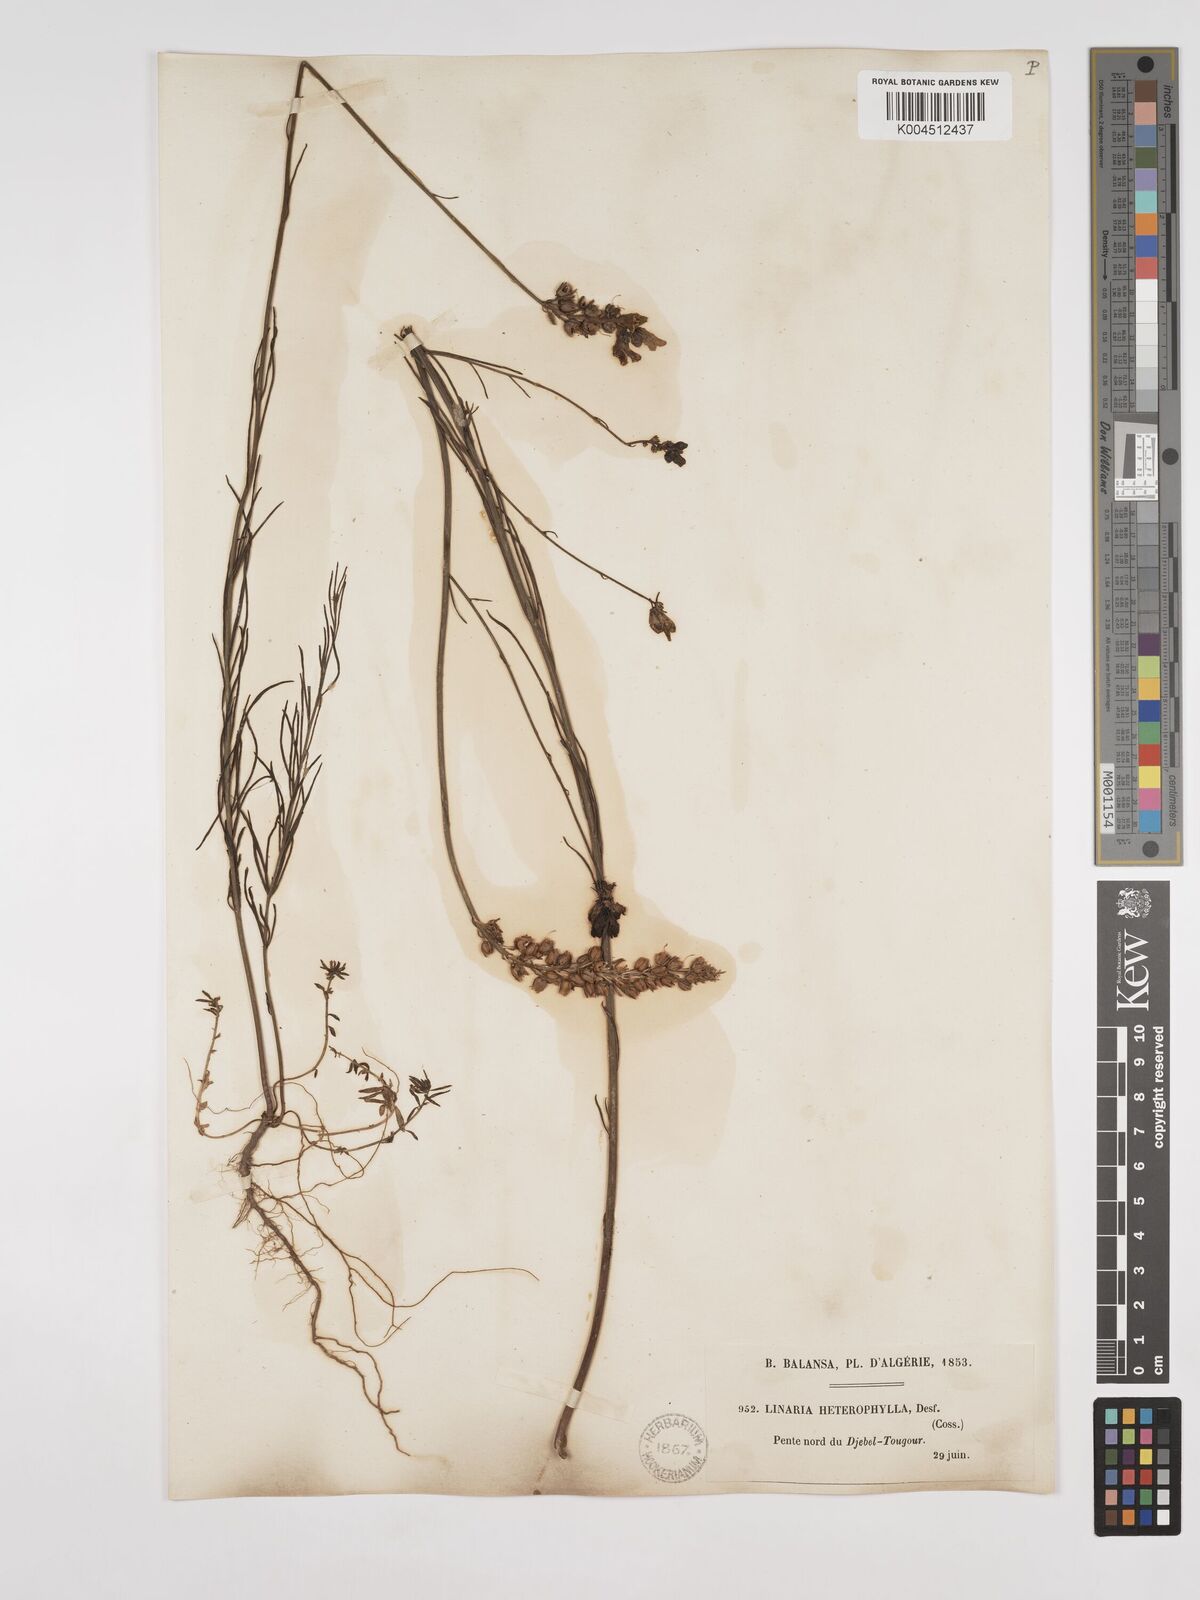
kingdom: Plantae
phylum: Tracheophyta
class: Magnoliopsida
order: Lamiales
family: Plantaginaceae
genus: Linaria
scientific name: Linaria multicaulis
